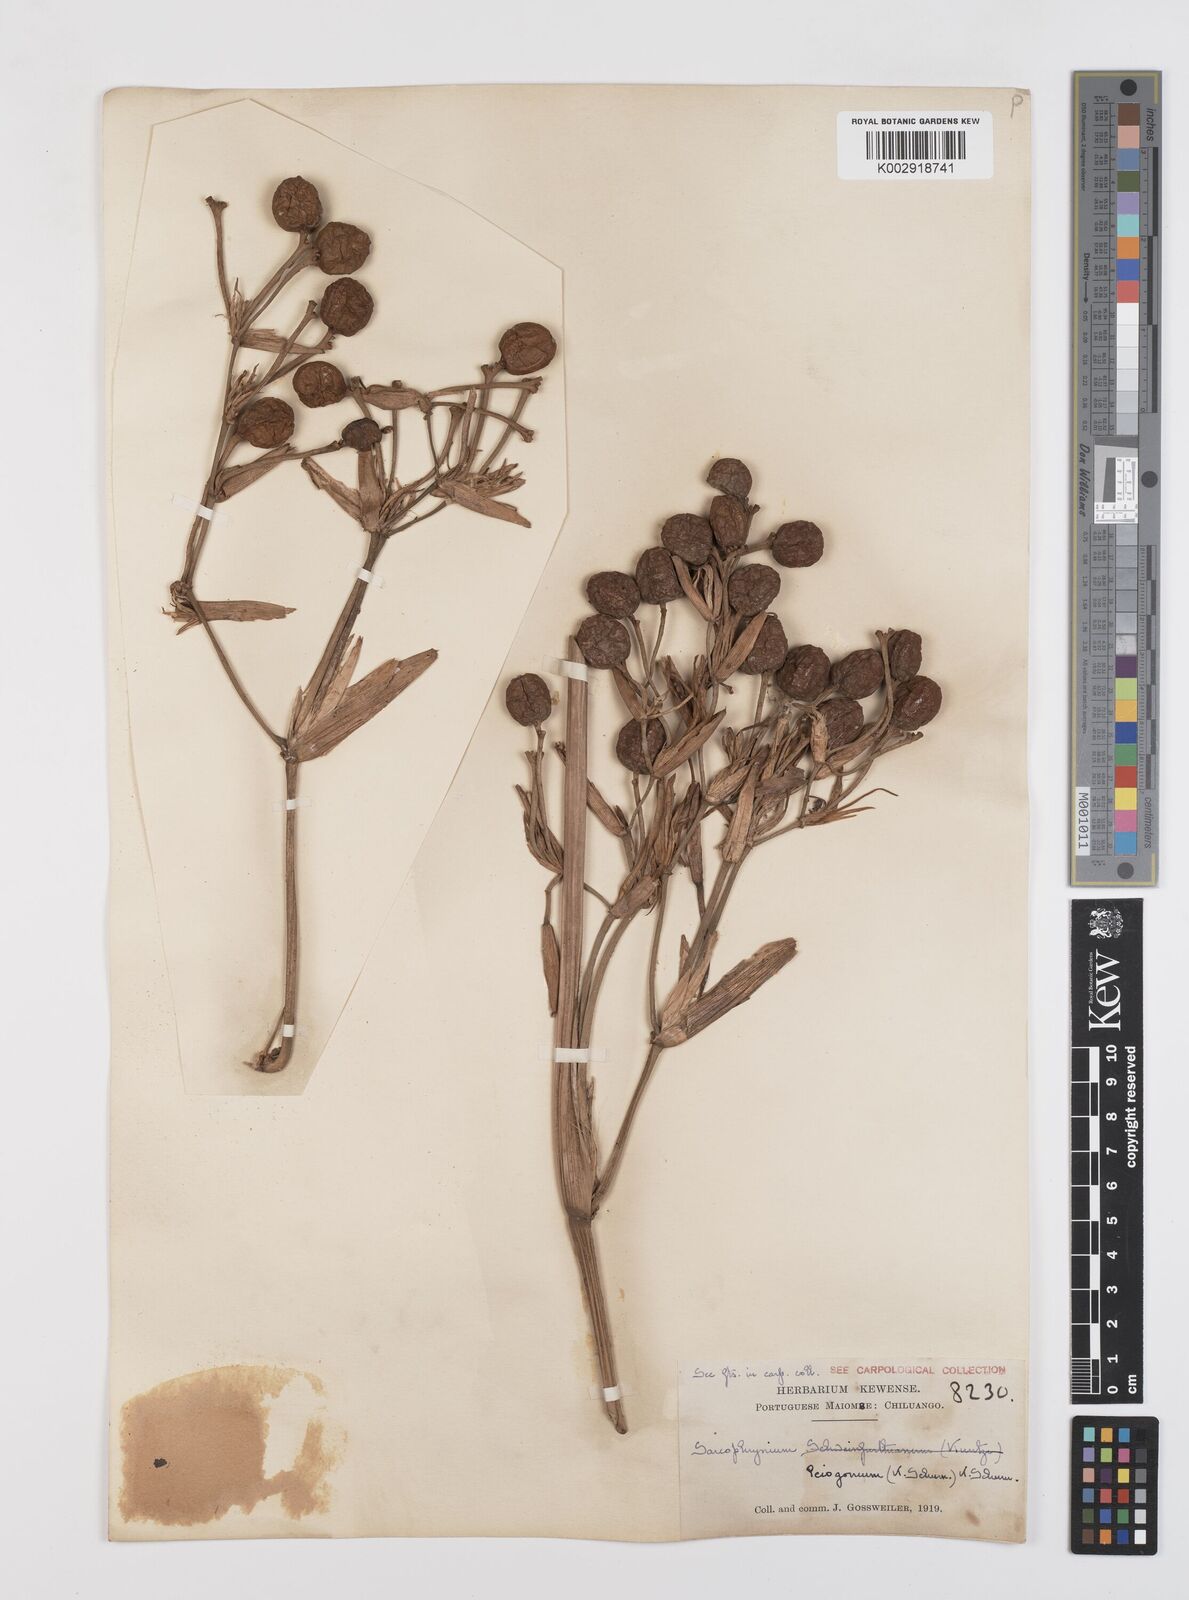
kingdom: Plantae
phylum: Tracheophyta
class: Liliopsida
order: Zingiberales
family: Marantaceae
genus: Sarcophrynium
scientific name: Sarcophrynium prionogonium
